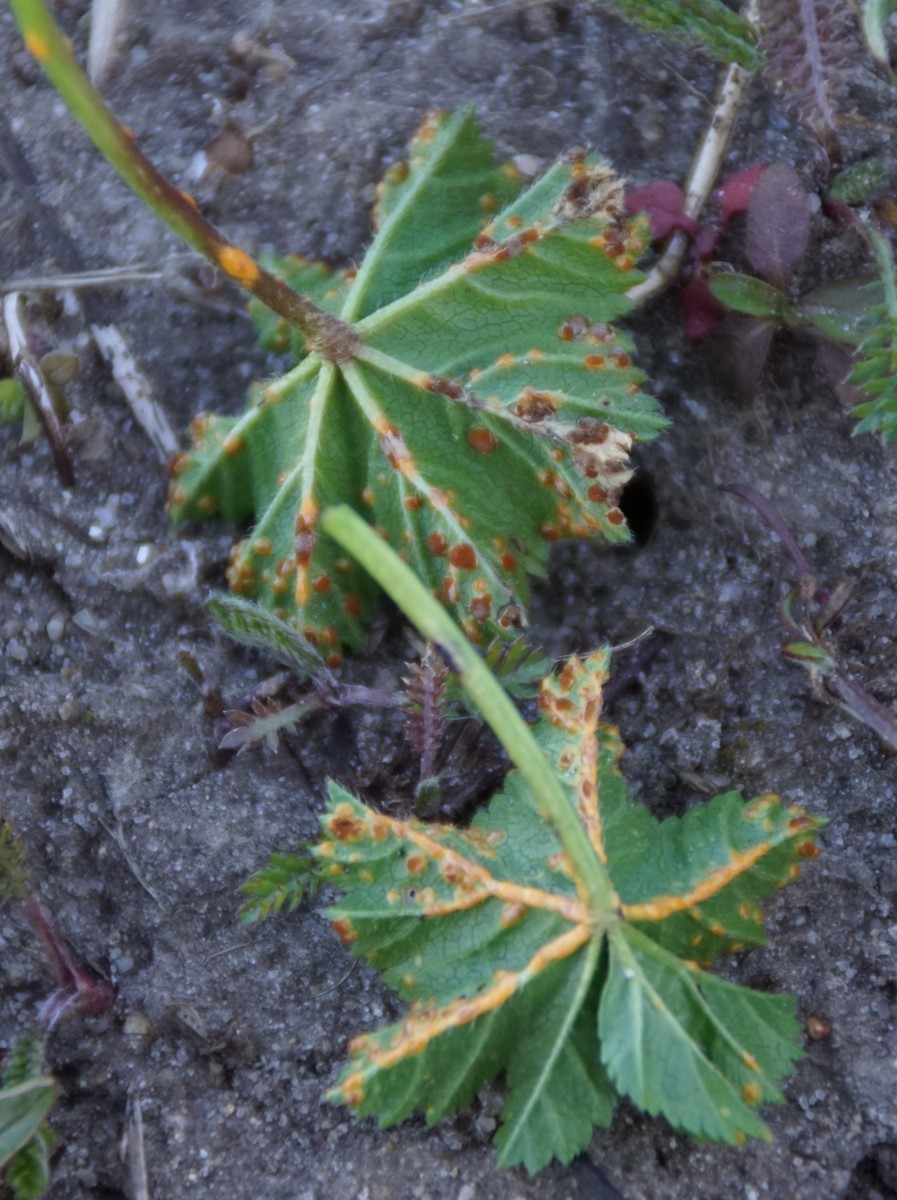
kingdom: Fungi
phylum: Basidiomycota
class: Pucciniomycetes
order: Pucciniales
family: Pucciniaceae
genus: Puccinia
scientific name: Puccinia malvacearum
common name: stokrose-tvecellerust
